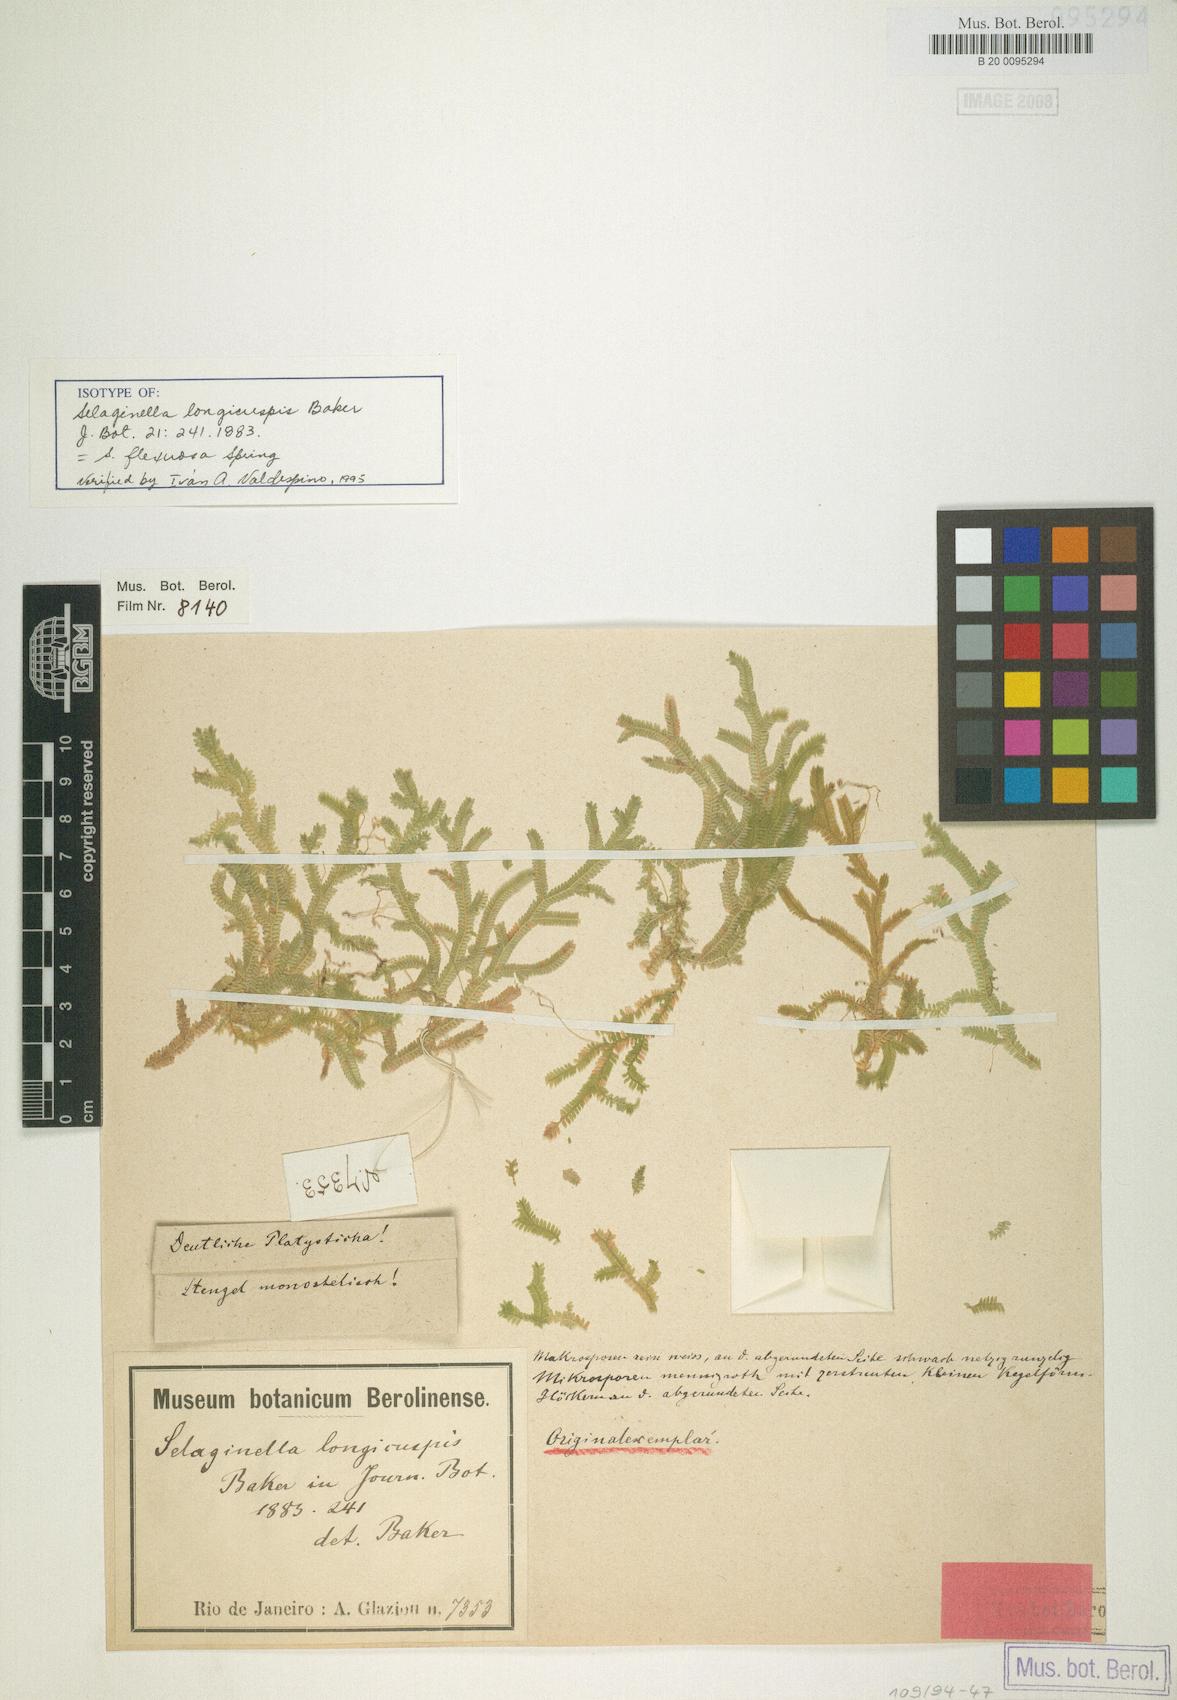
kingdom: Plantae
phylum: Tracheophyta
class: Lycopodiopsida
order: Selaginellales
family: Selaginellaceae
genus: Selaginella
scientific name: Selaginella flexuosa
